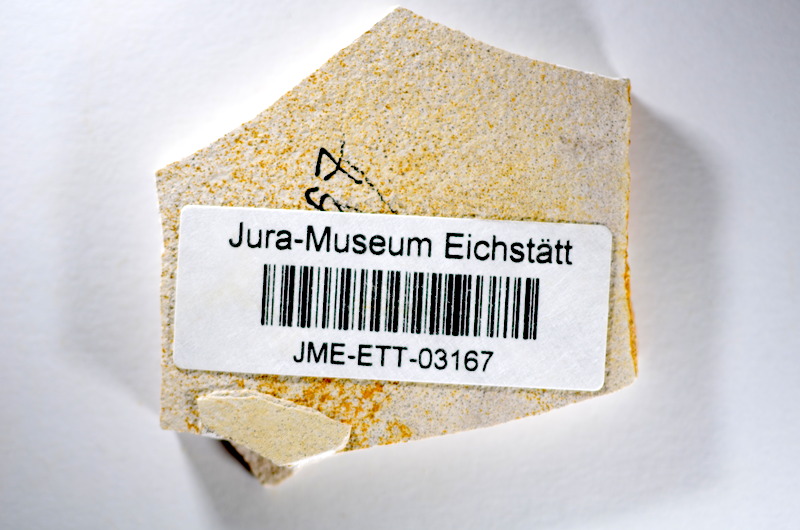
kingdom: Animalia
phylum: Chordata
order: Salmoniformes
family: Orthogonikleithridae
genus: Orthogonikleithrus
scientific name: Orthogonikleithrus hoelli
